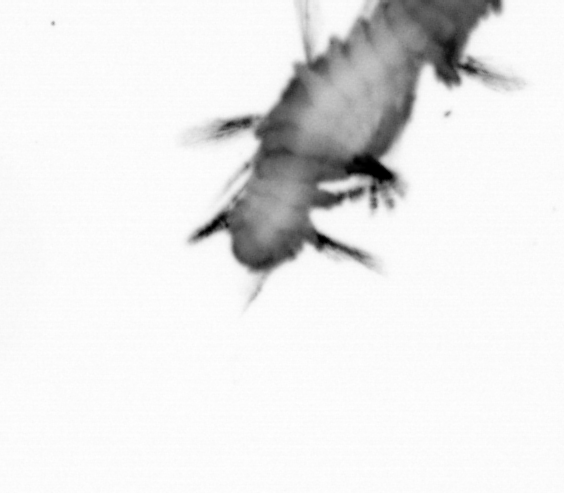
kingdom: Animalia
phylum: Annelida
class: Polychaeta
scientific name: Polychaeta
